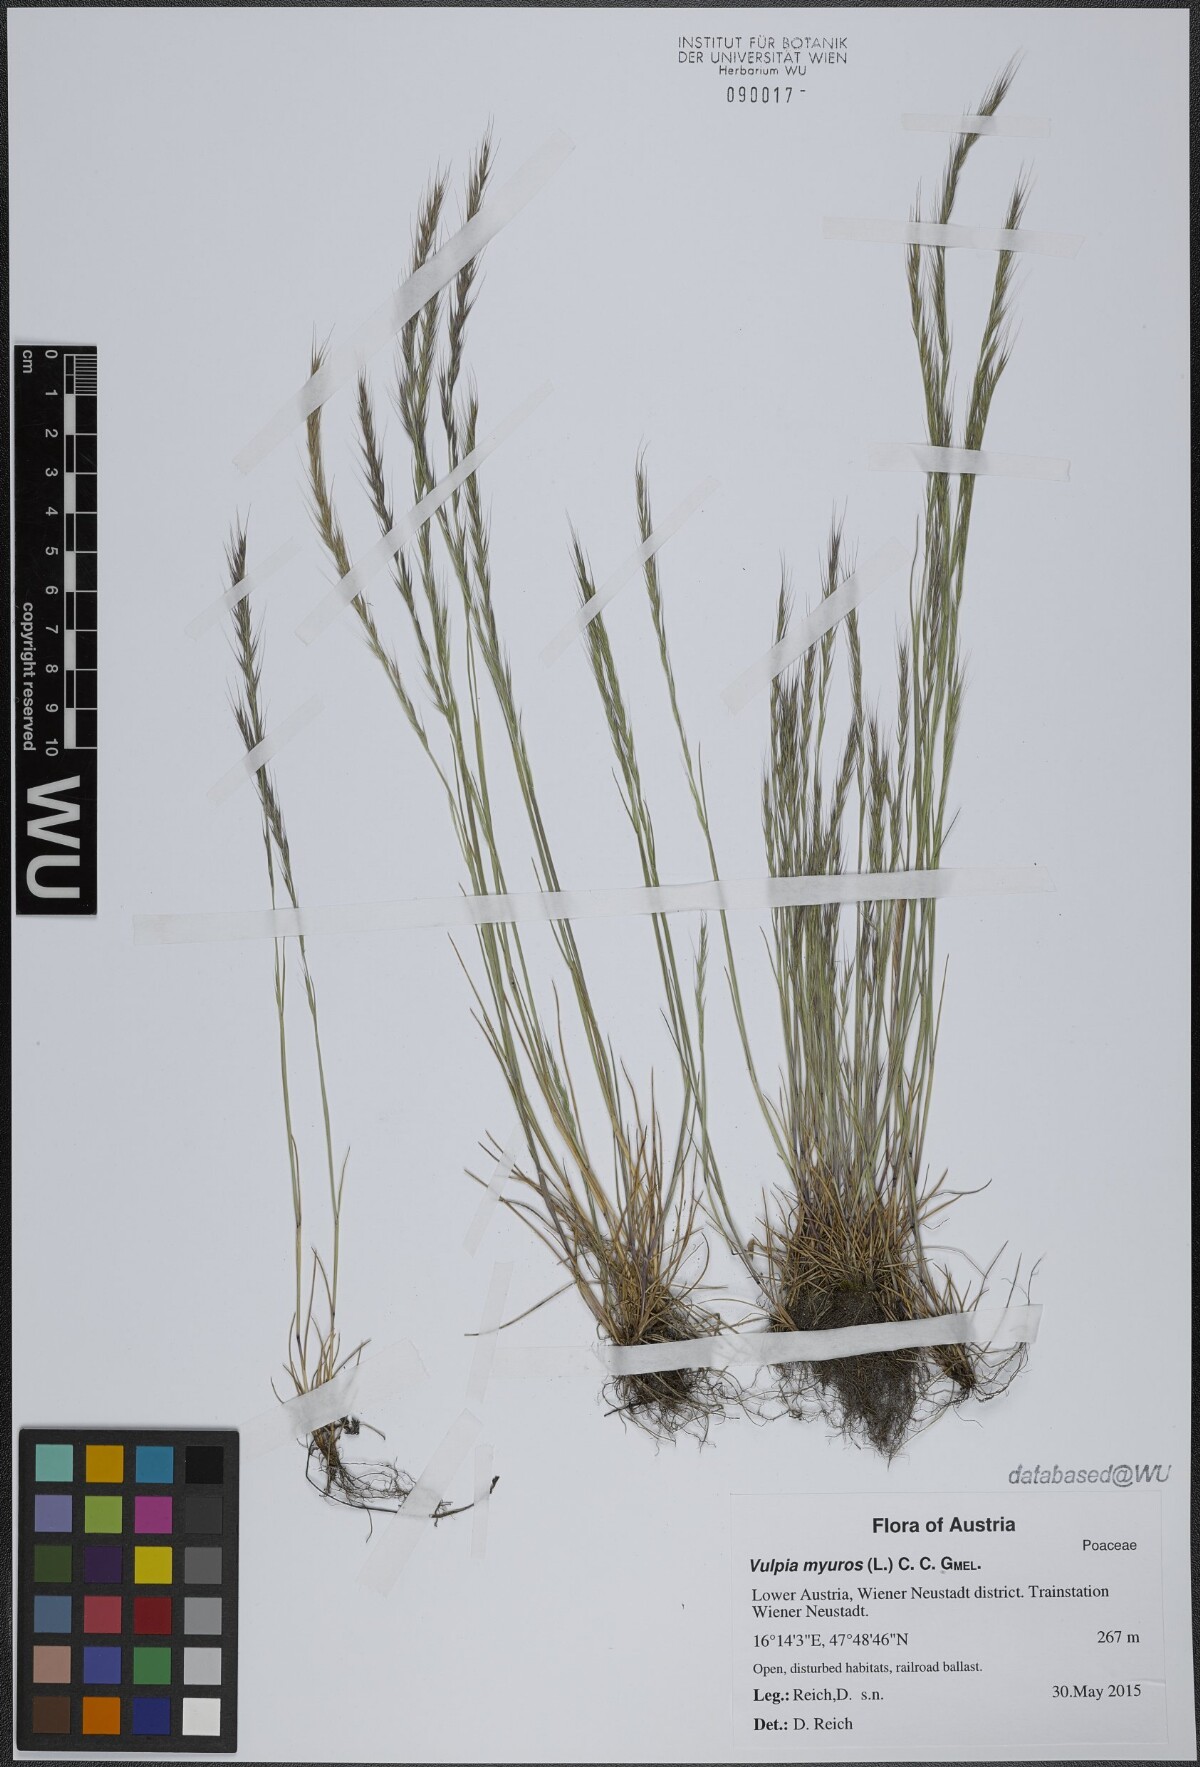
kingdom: Plantae
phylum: Tracheophyta
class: Liliopsida
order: Poales
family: Poaceae
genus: Festuca
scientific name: Festuca myuros
